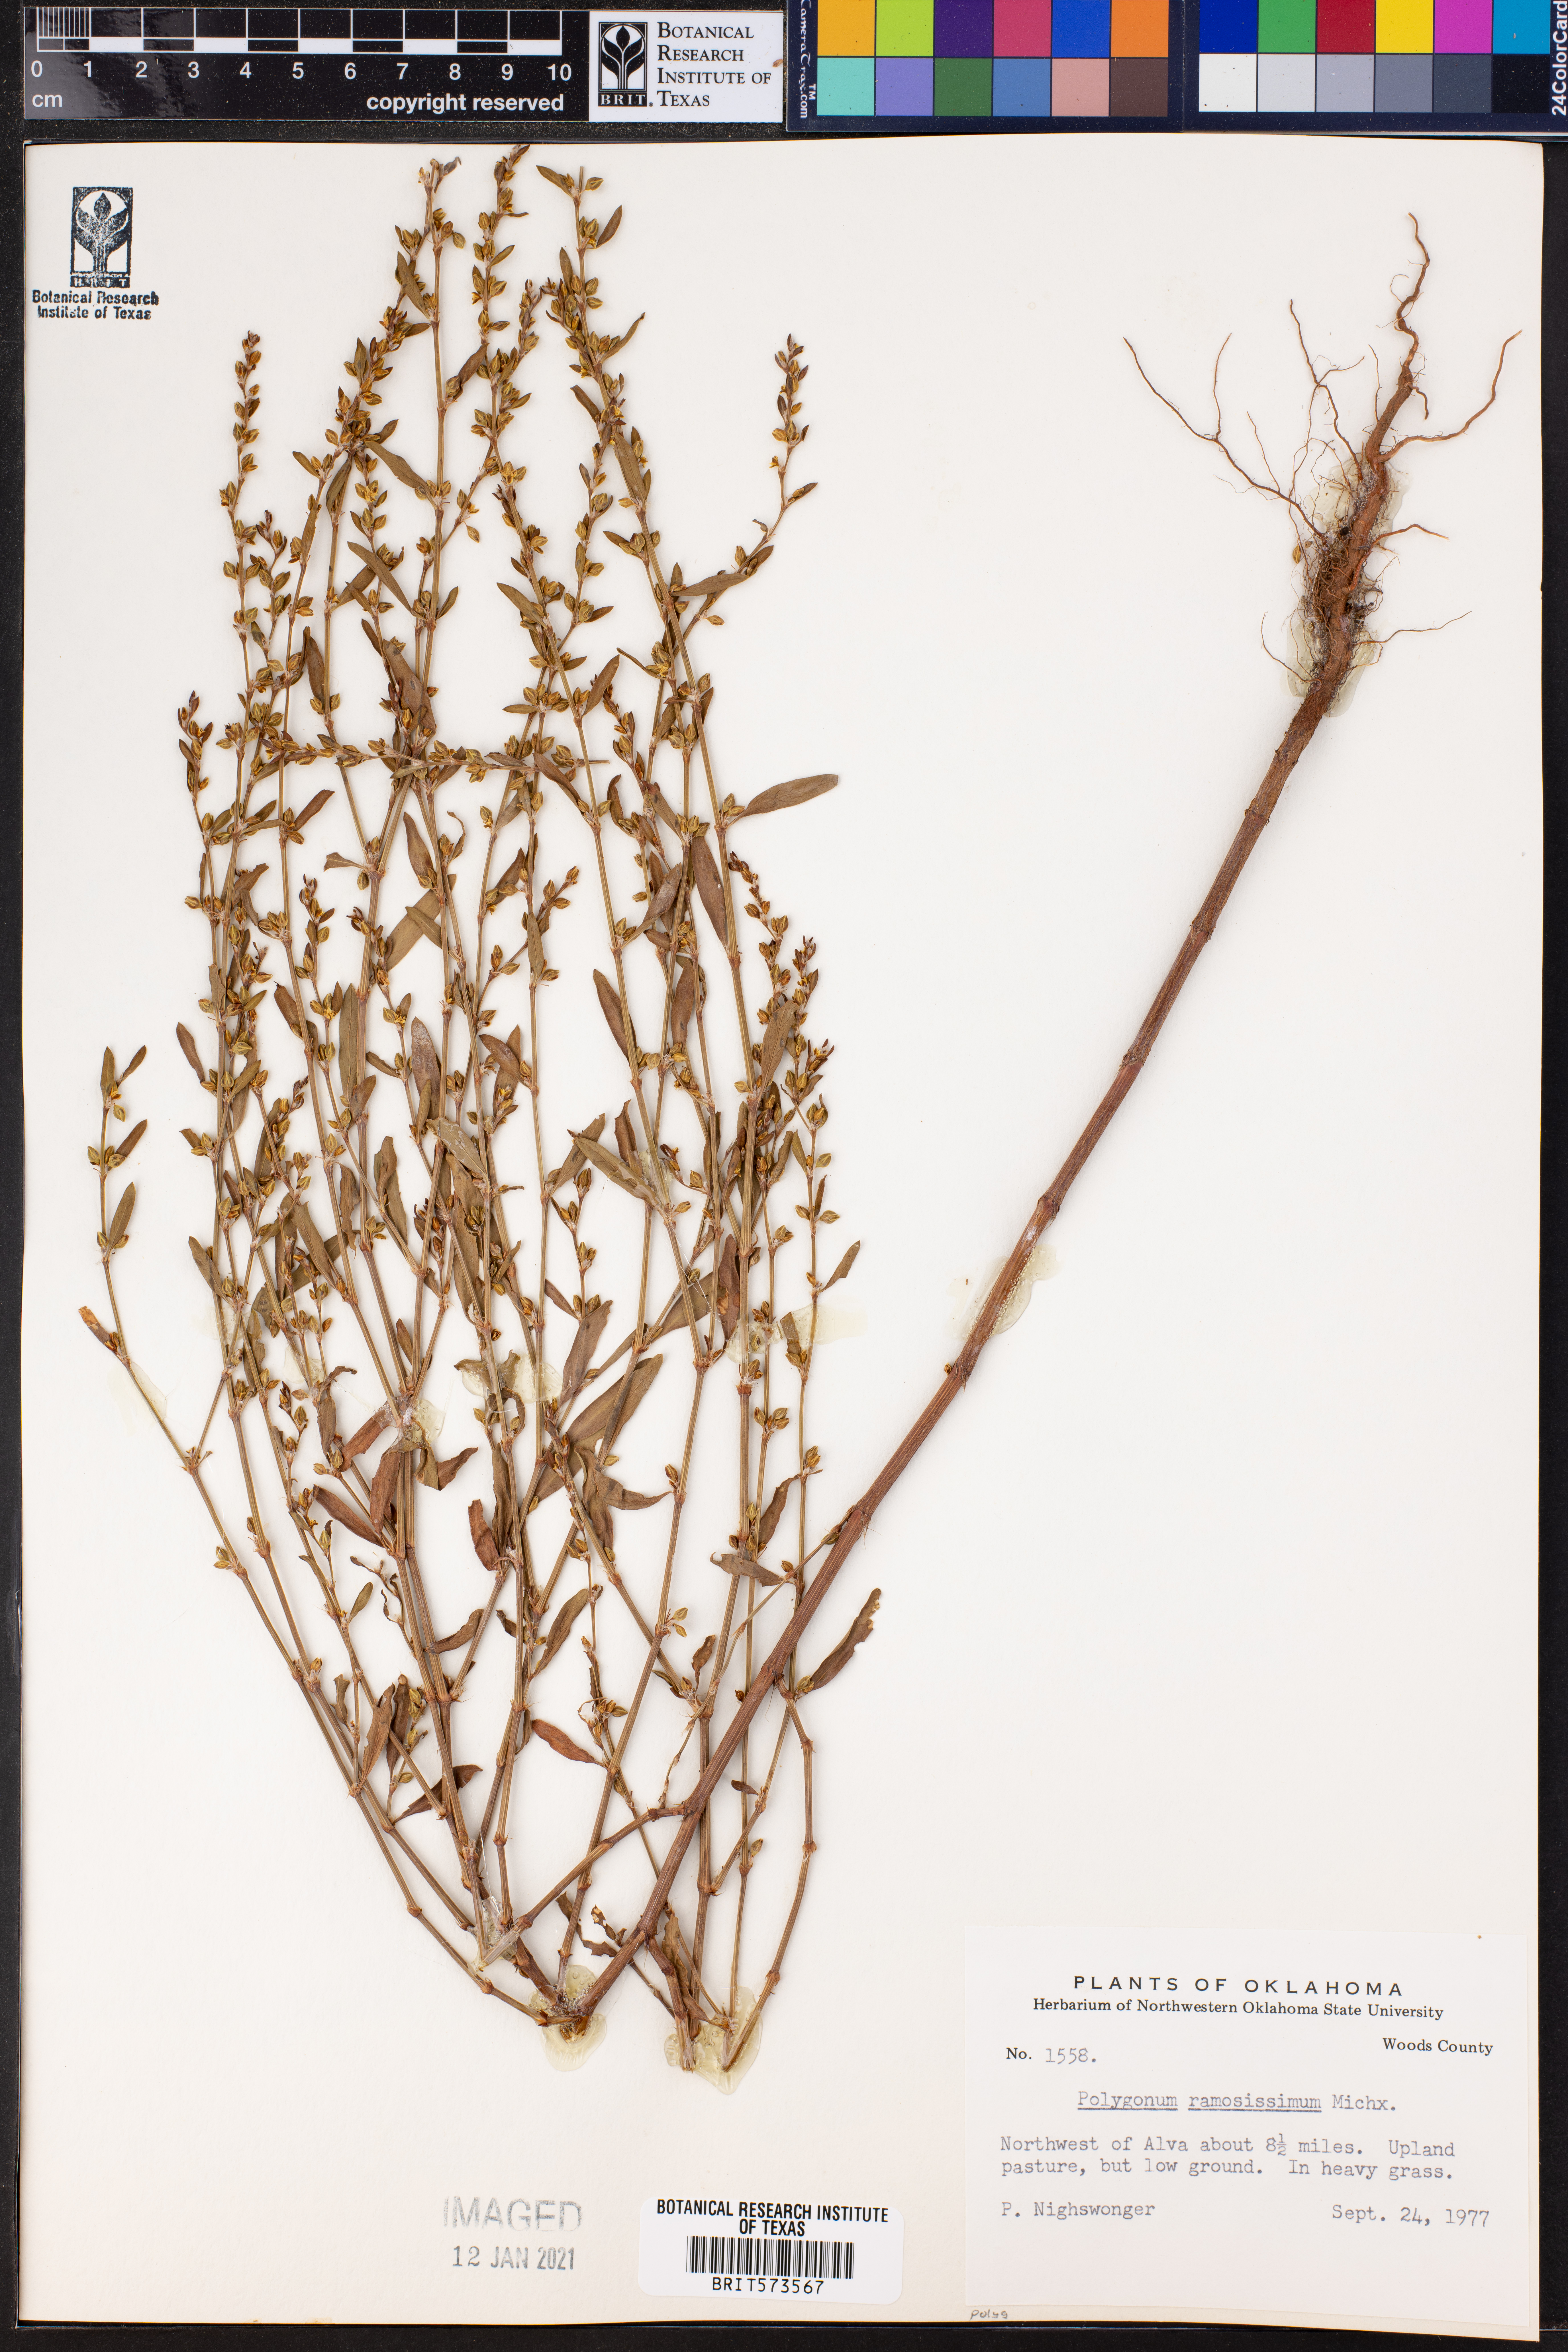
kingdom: Plantae
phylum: Tracheophyta
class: Magnoliopsida
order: Caryophyllales
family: Polygonaceae
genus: Polygonum
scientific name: Polygonum ramosissimum
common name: Bushy knotweed
